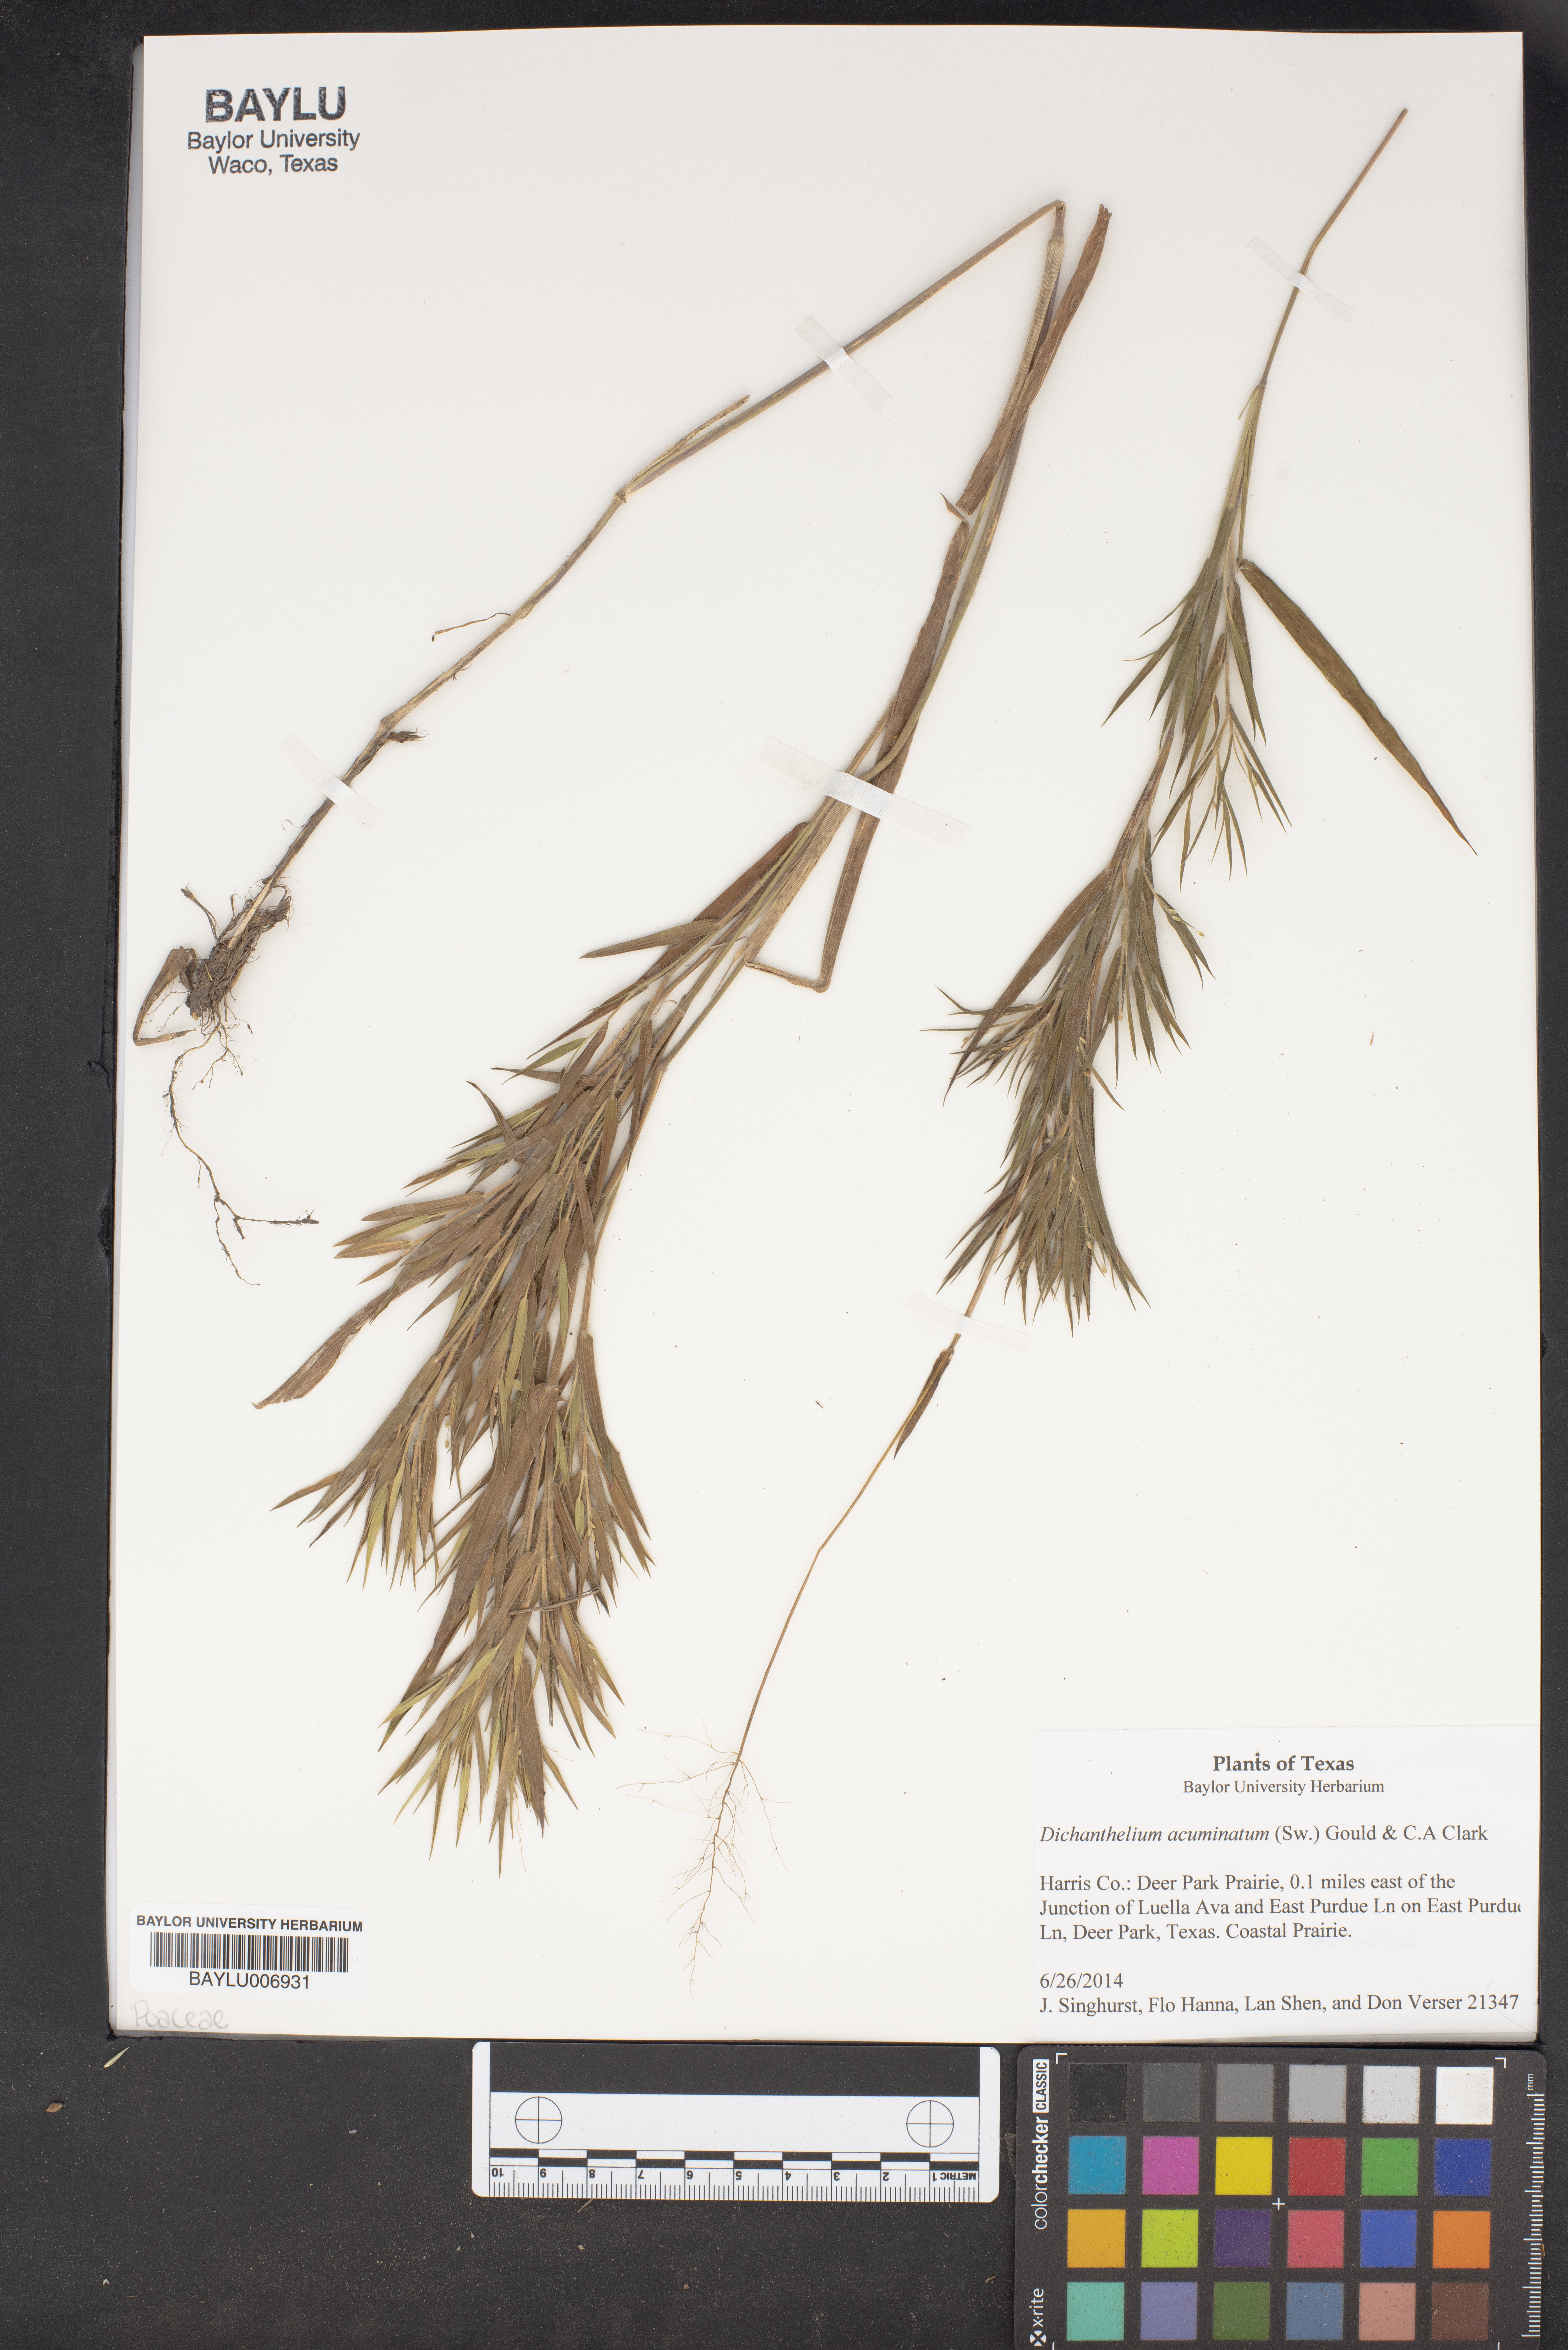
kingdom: Plantae
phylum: Tracheophyta
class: Liliopsida
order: Poales
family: Poaceae
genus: Dichanthelium
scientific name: Dichanthelium acuminatum
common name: Hairy panic grass
